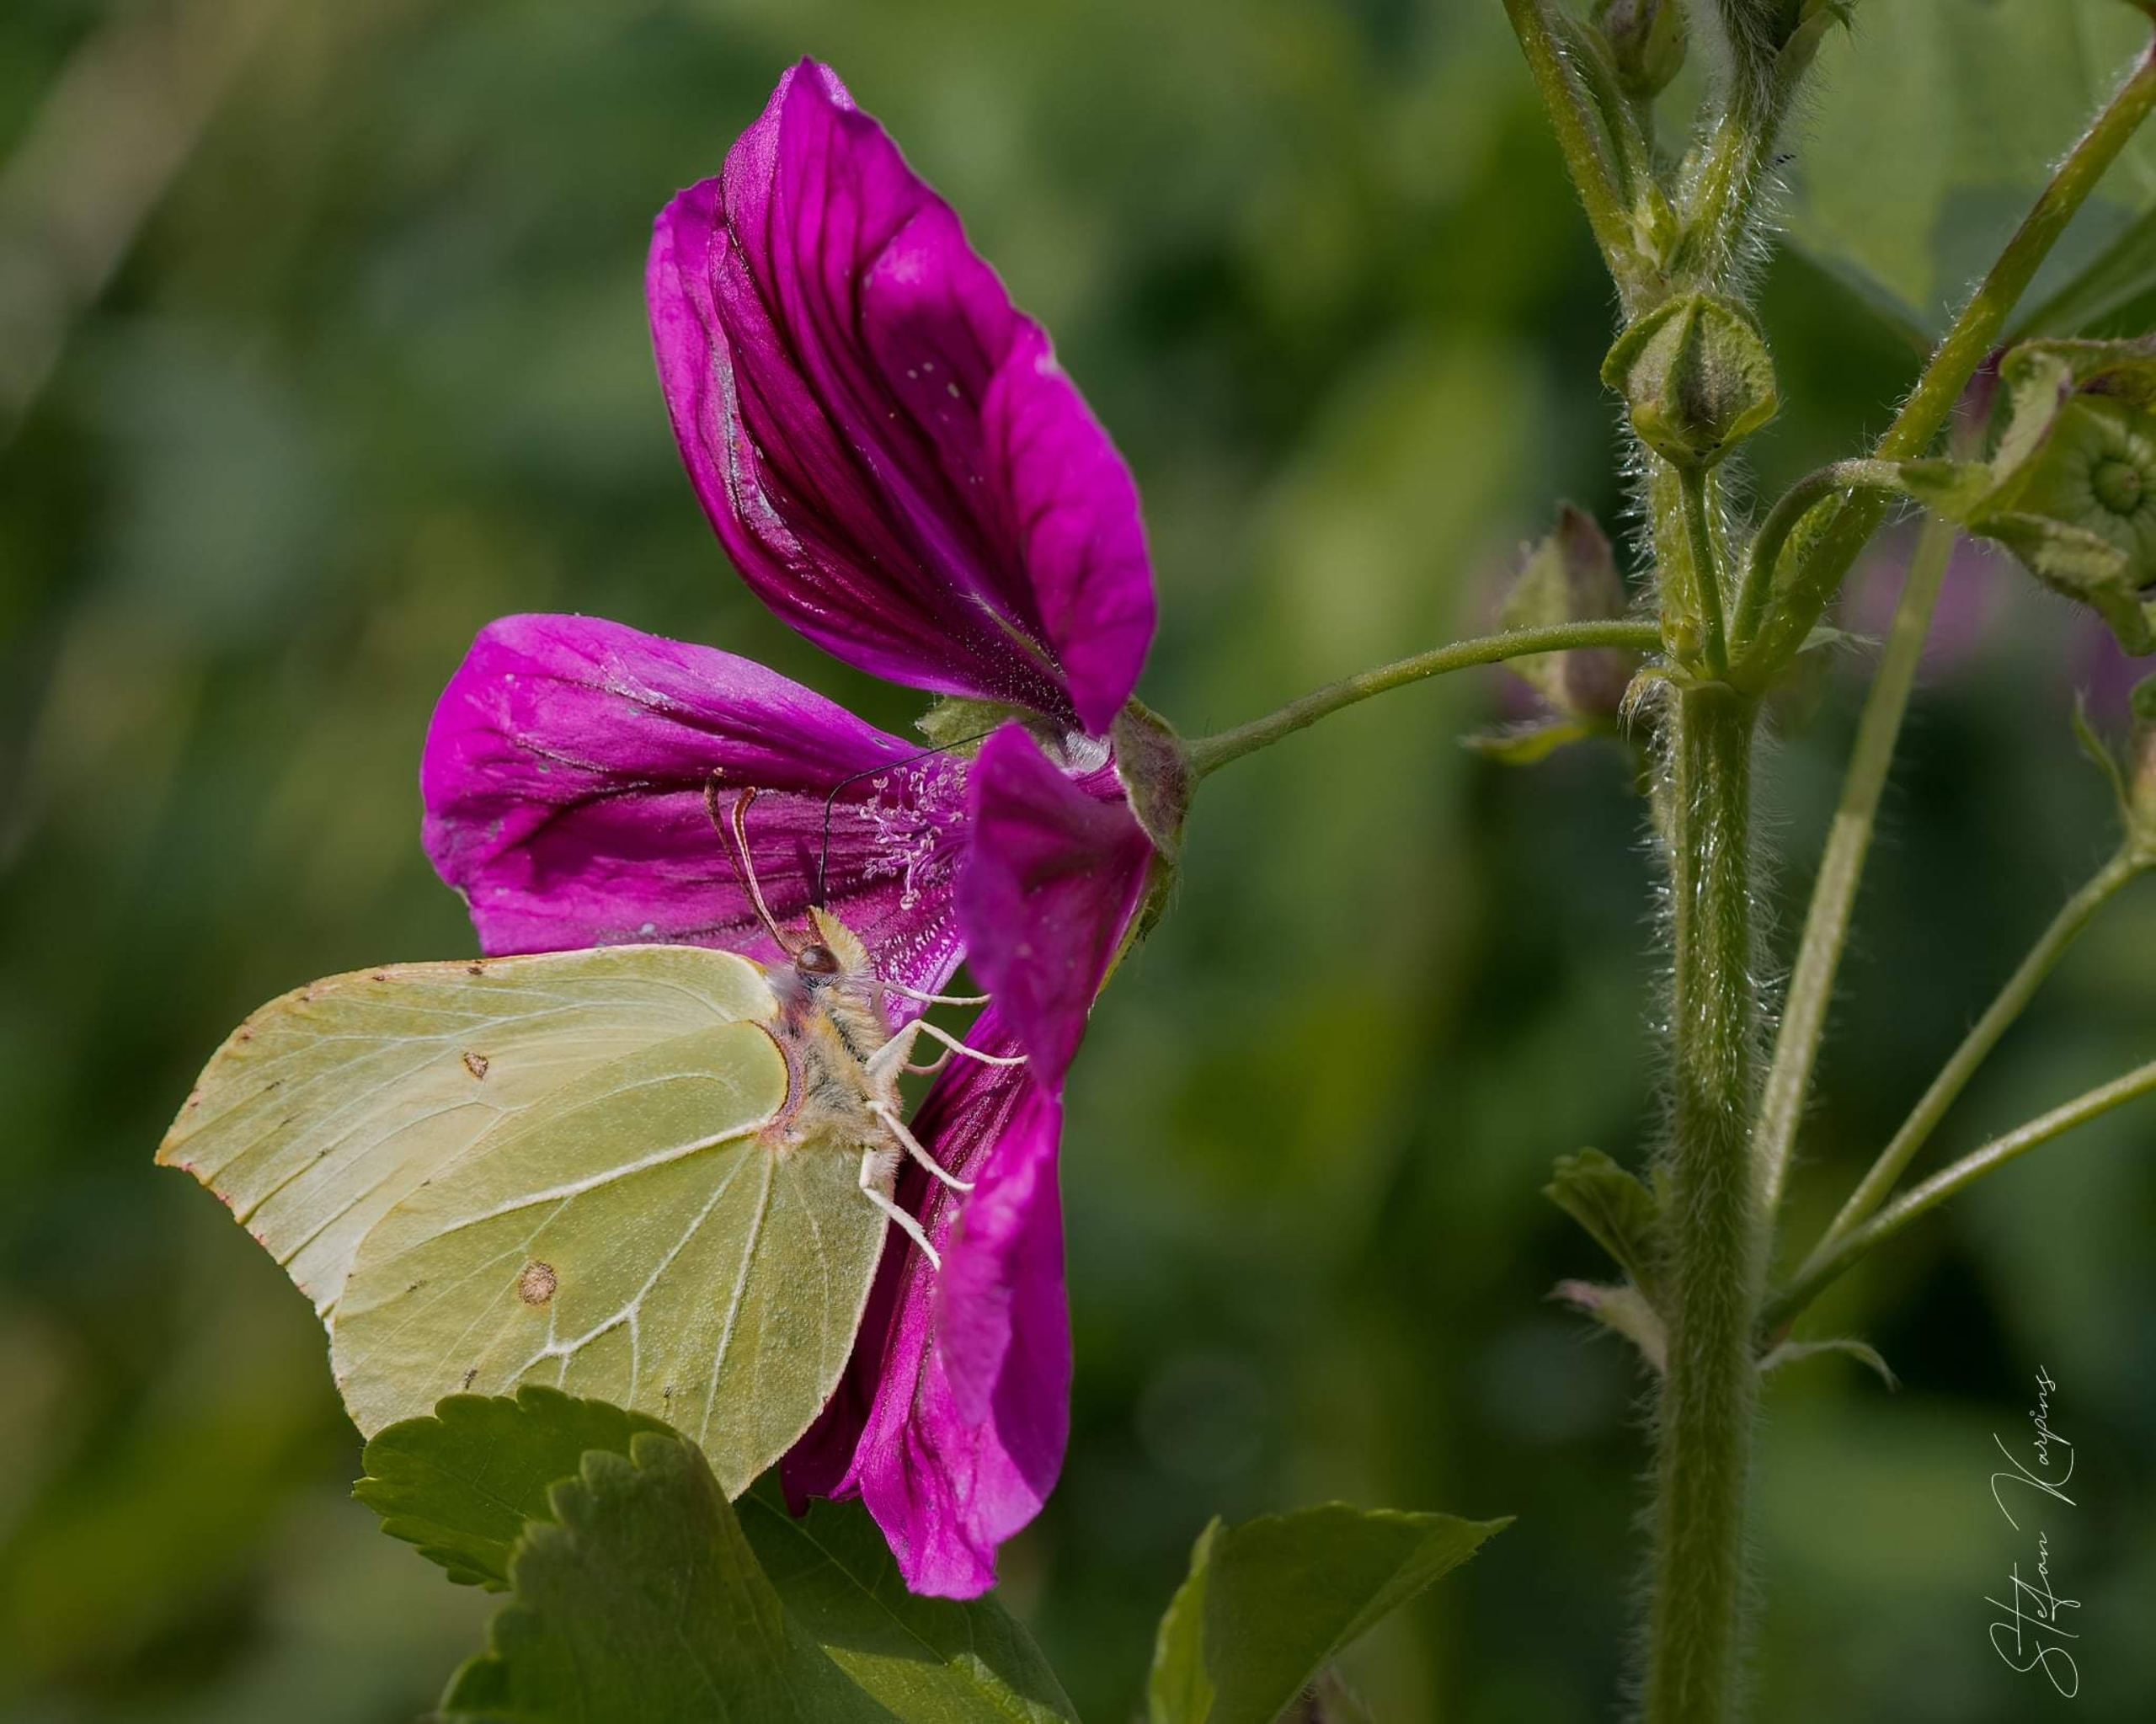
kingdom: Animalia
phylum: Arthropoda
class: Insecta
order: Lepidoptera
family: Pieridae
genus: Gonepteryx
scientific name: Gonepteryx rhamni
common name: Citronsommerfugl
